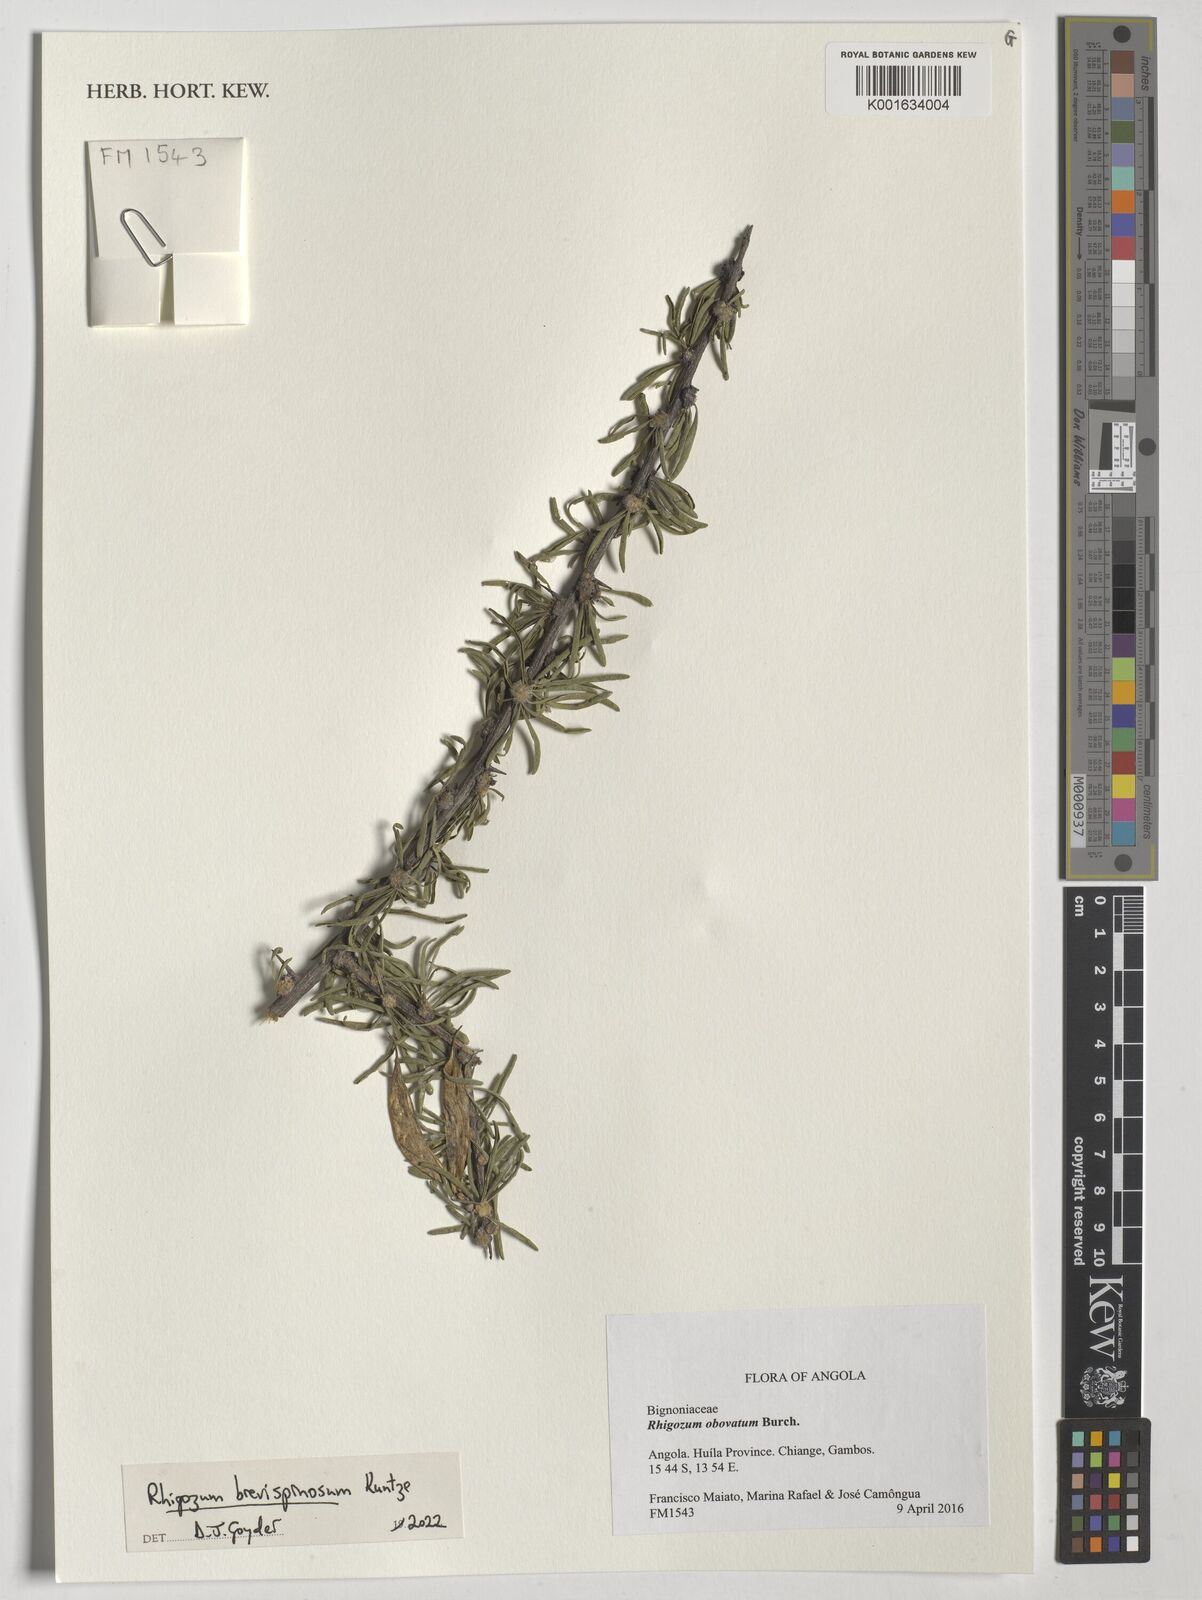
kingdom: Plantae
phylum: Tracheophyta
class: Magnoliopsida
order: Lamiales
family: Bignoniaceae
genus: Rhigozum
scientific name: Rhigozum obovatum
